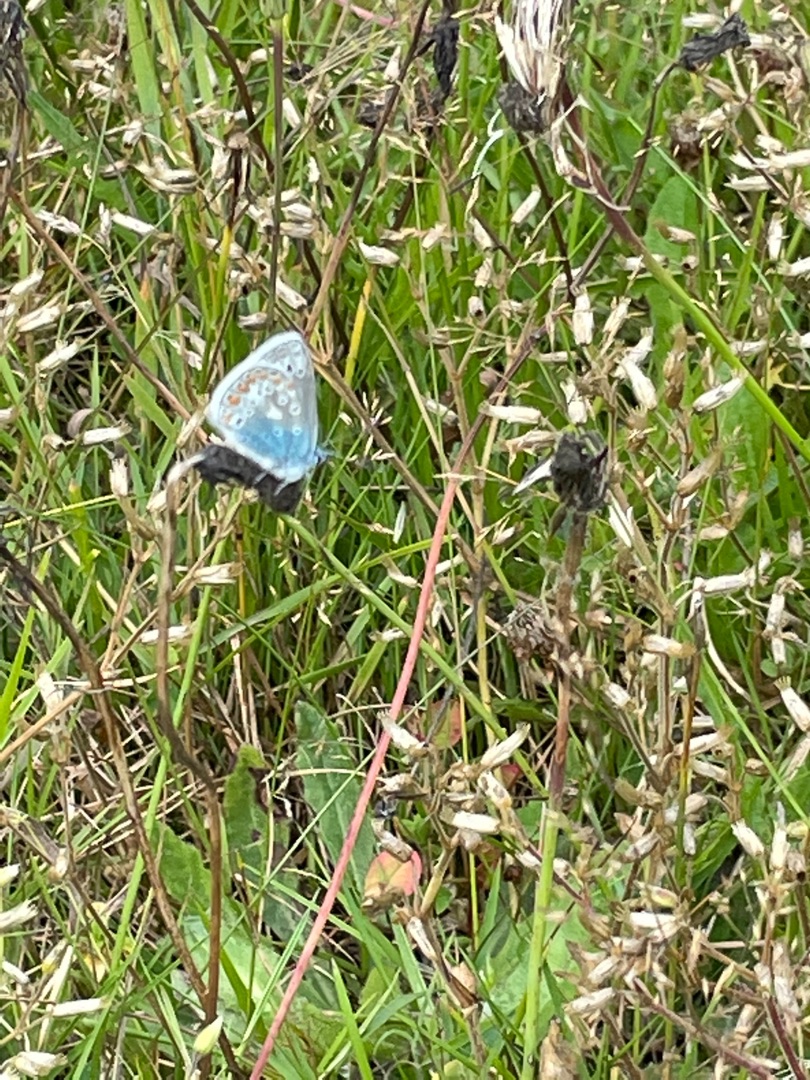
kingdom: Animalia
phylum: Arthropoda
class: Insecta
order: Lepidoptera
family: Lycaenidae
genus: Polyommatus
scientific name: Polyommatus icarus
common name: Almindelig blåfugl
